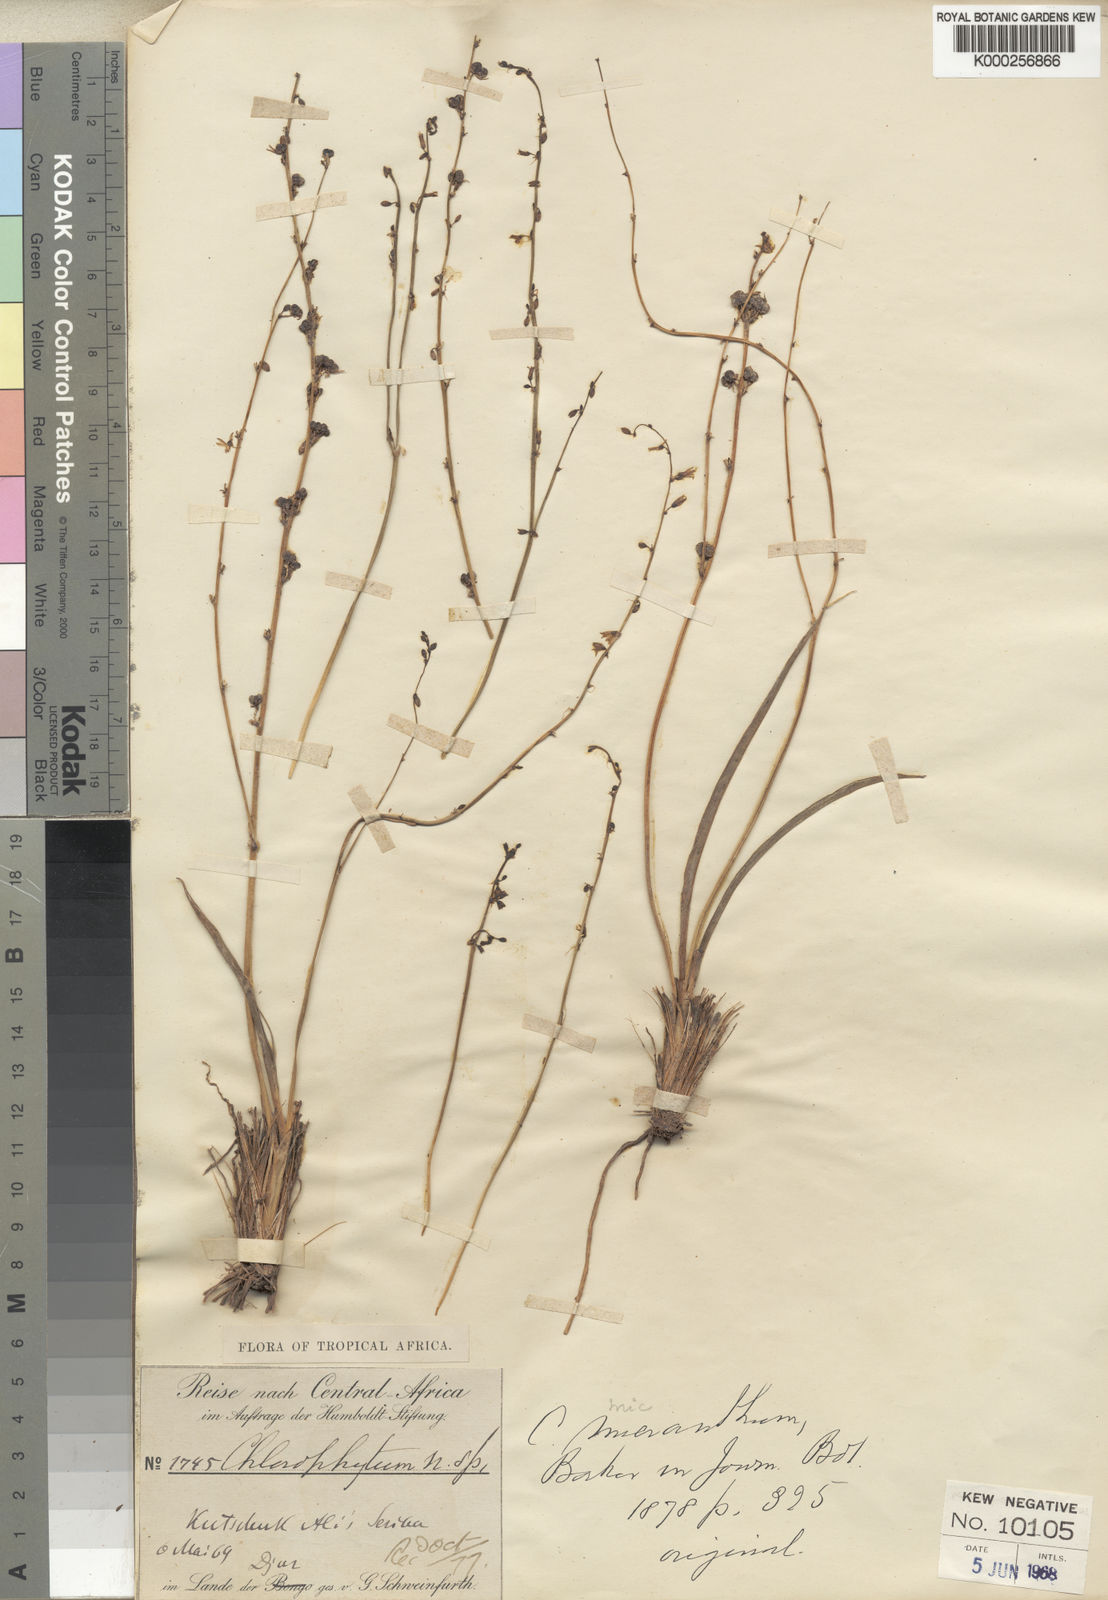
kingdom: Plantae
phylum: Tracheophyta
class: Liliopsida
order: Asparagales
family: Asparagaceae
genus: Chlorophytum
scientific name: Chlorophytum gallabatense
